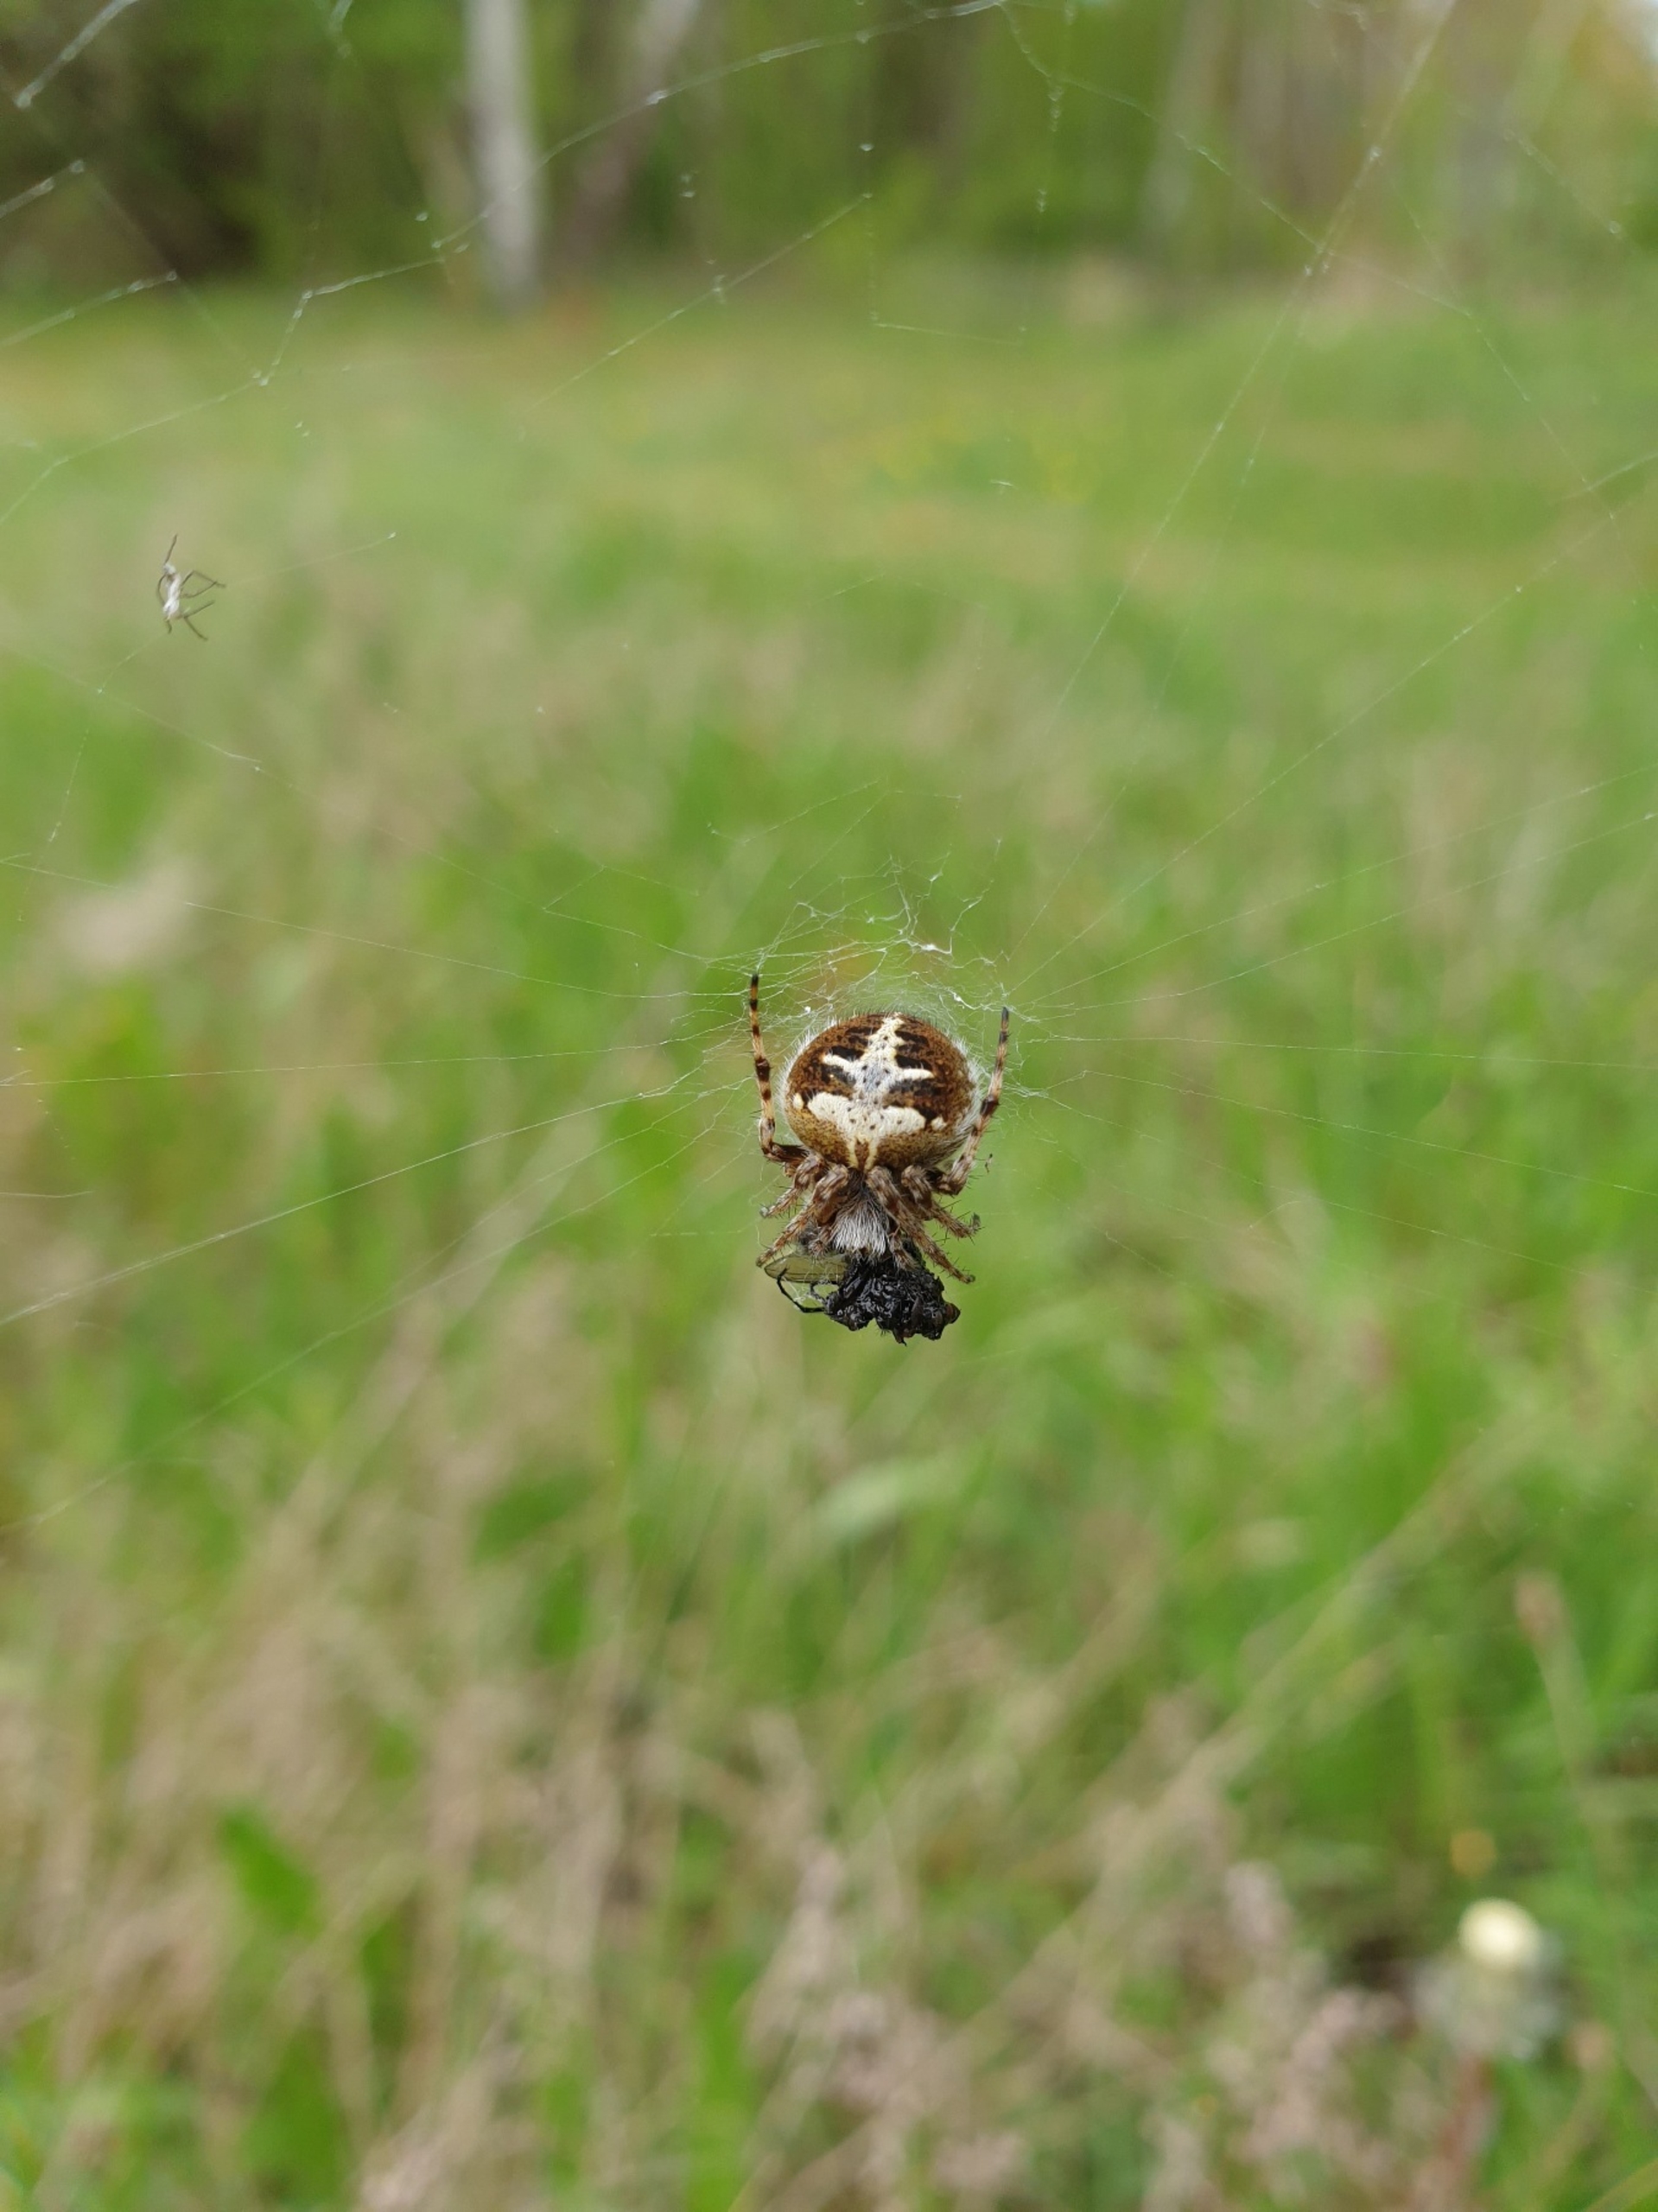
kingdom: Animalia
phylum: Arthropoda
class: Arachnida
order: Araneae
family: Araneidae
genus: Agalenatea
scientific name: Agalenatea redii
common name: Lodden hjulspinder
